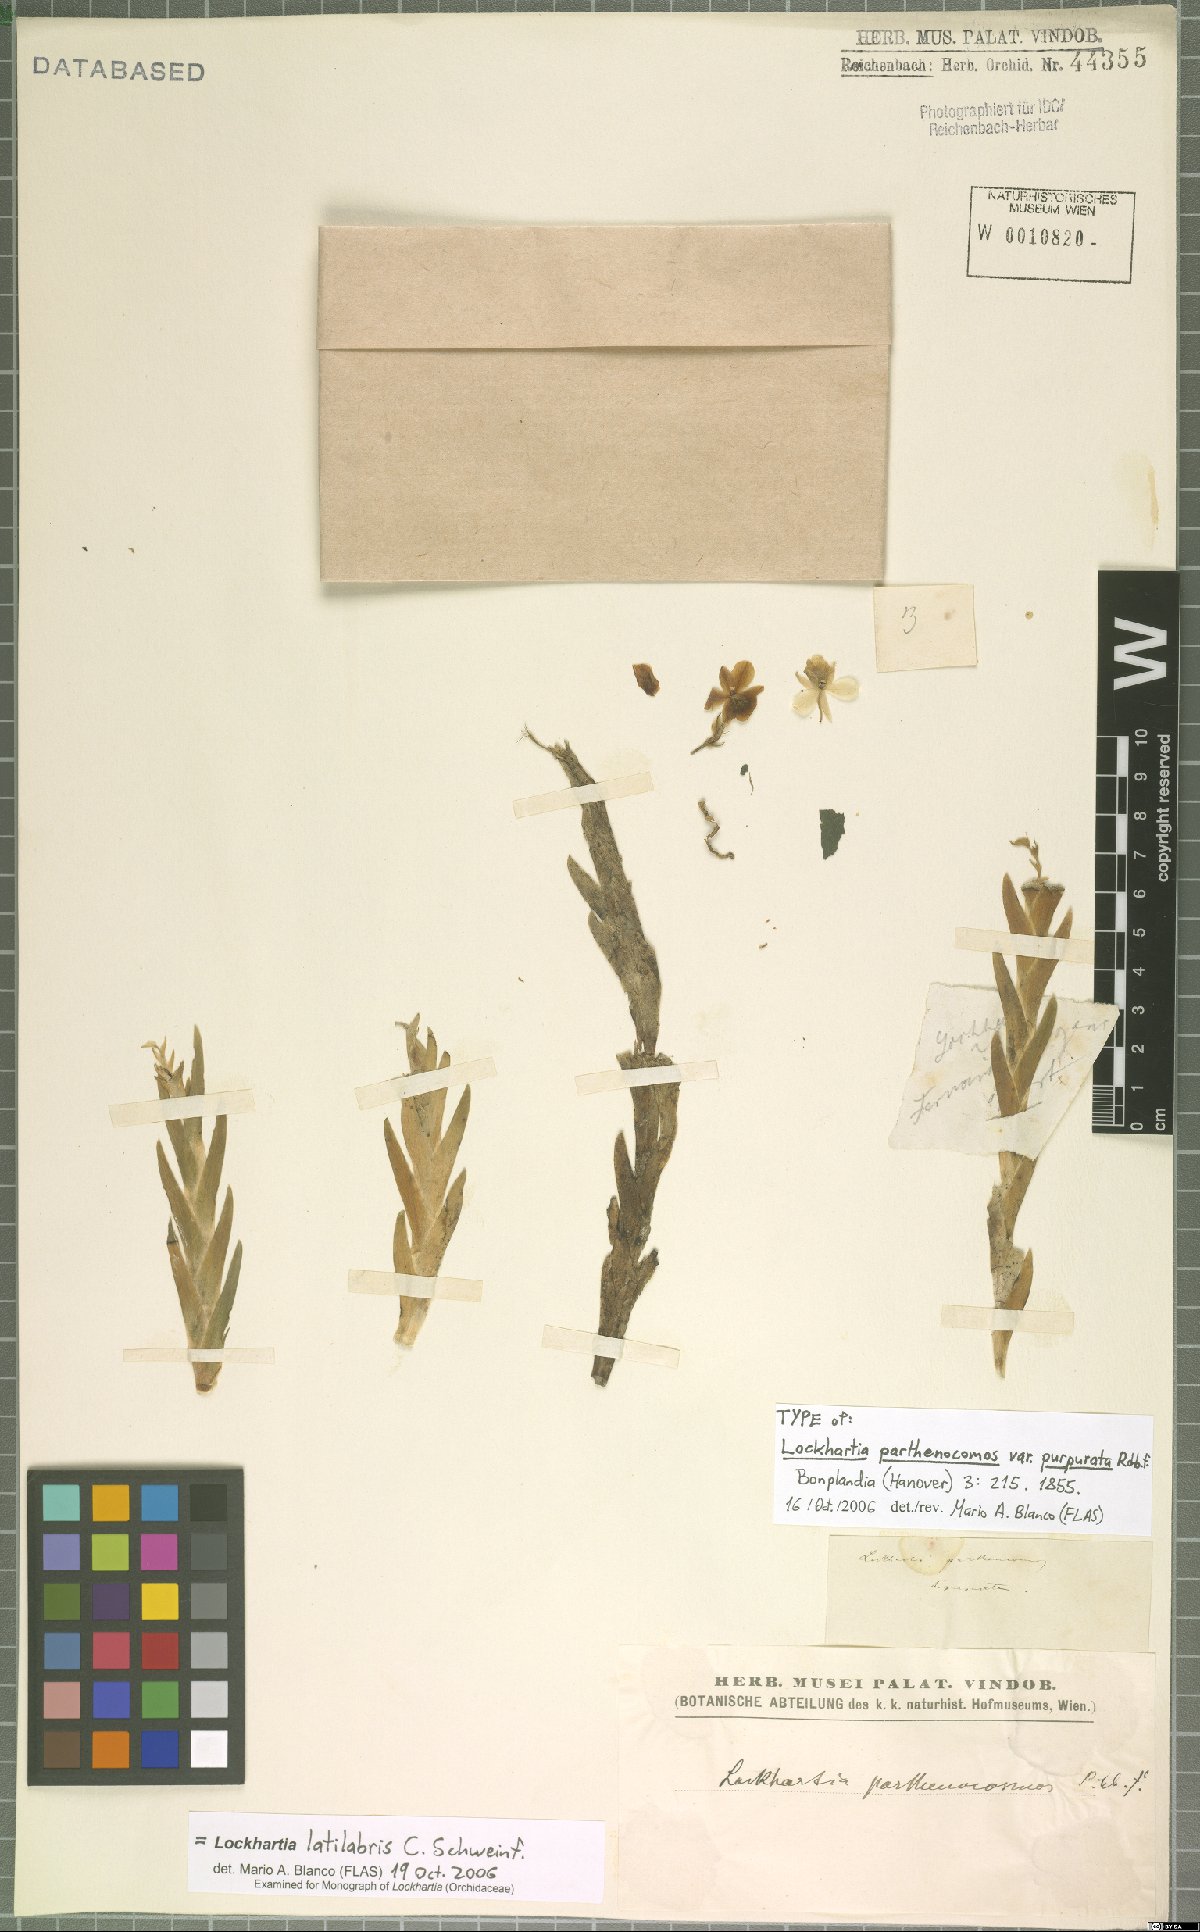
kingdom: Plantae
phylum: Tracheophyta
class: Liliopsida
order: Asparagales
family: Orchidaceae
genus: Lockhartia
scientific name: Lockhartia latilabris
